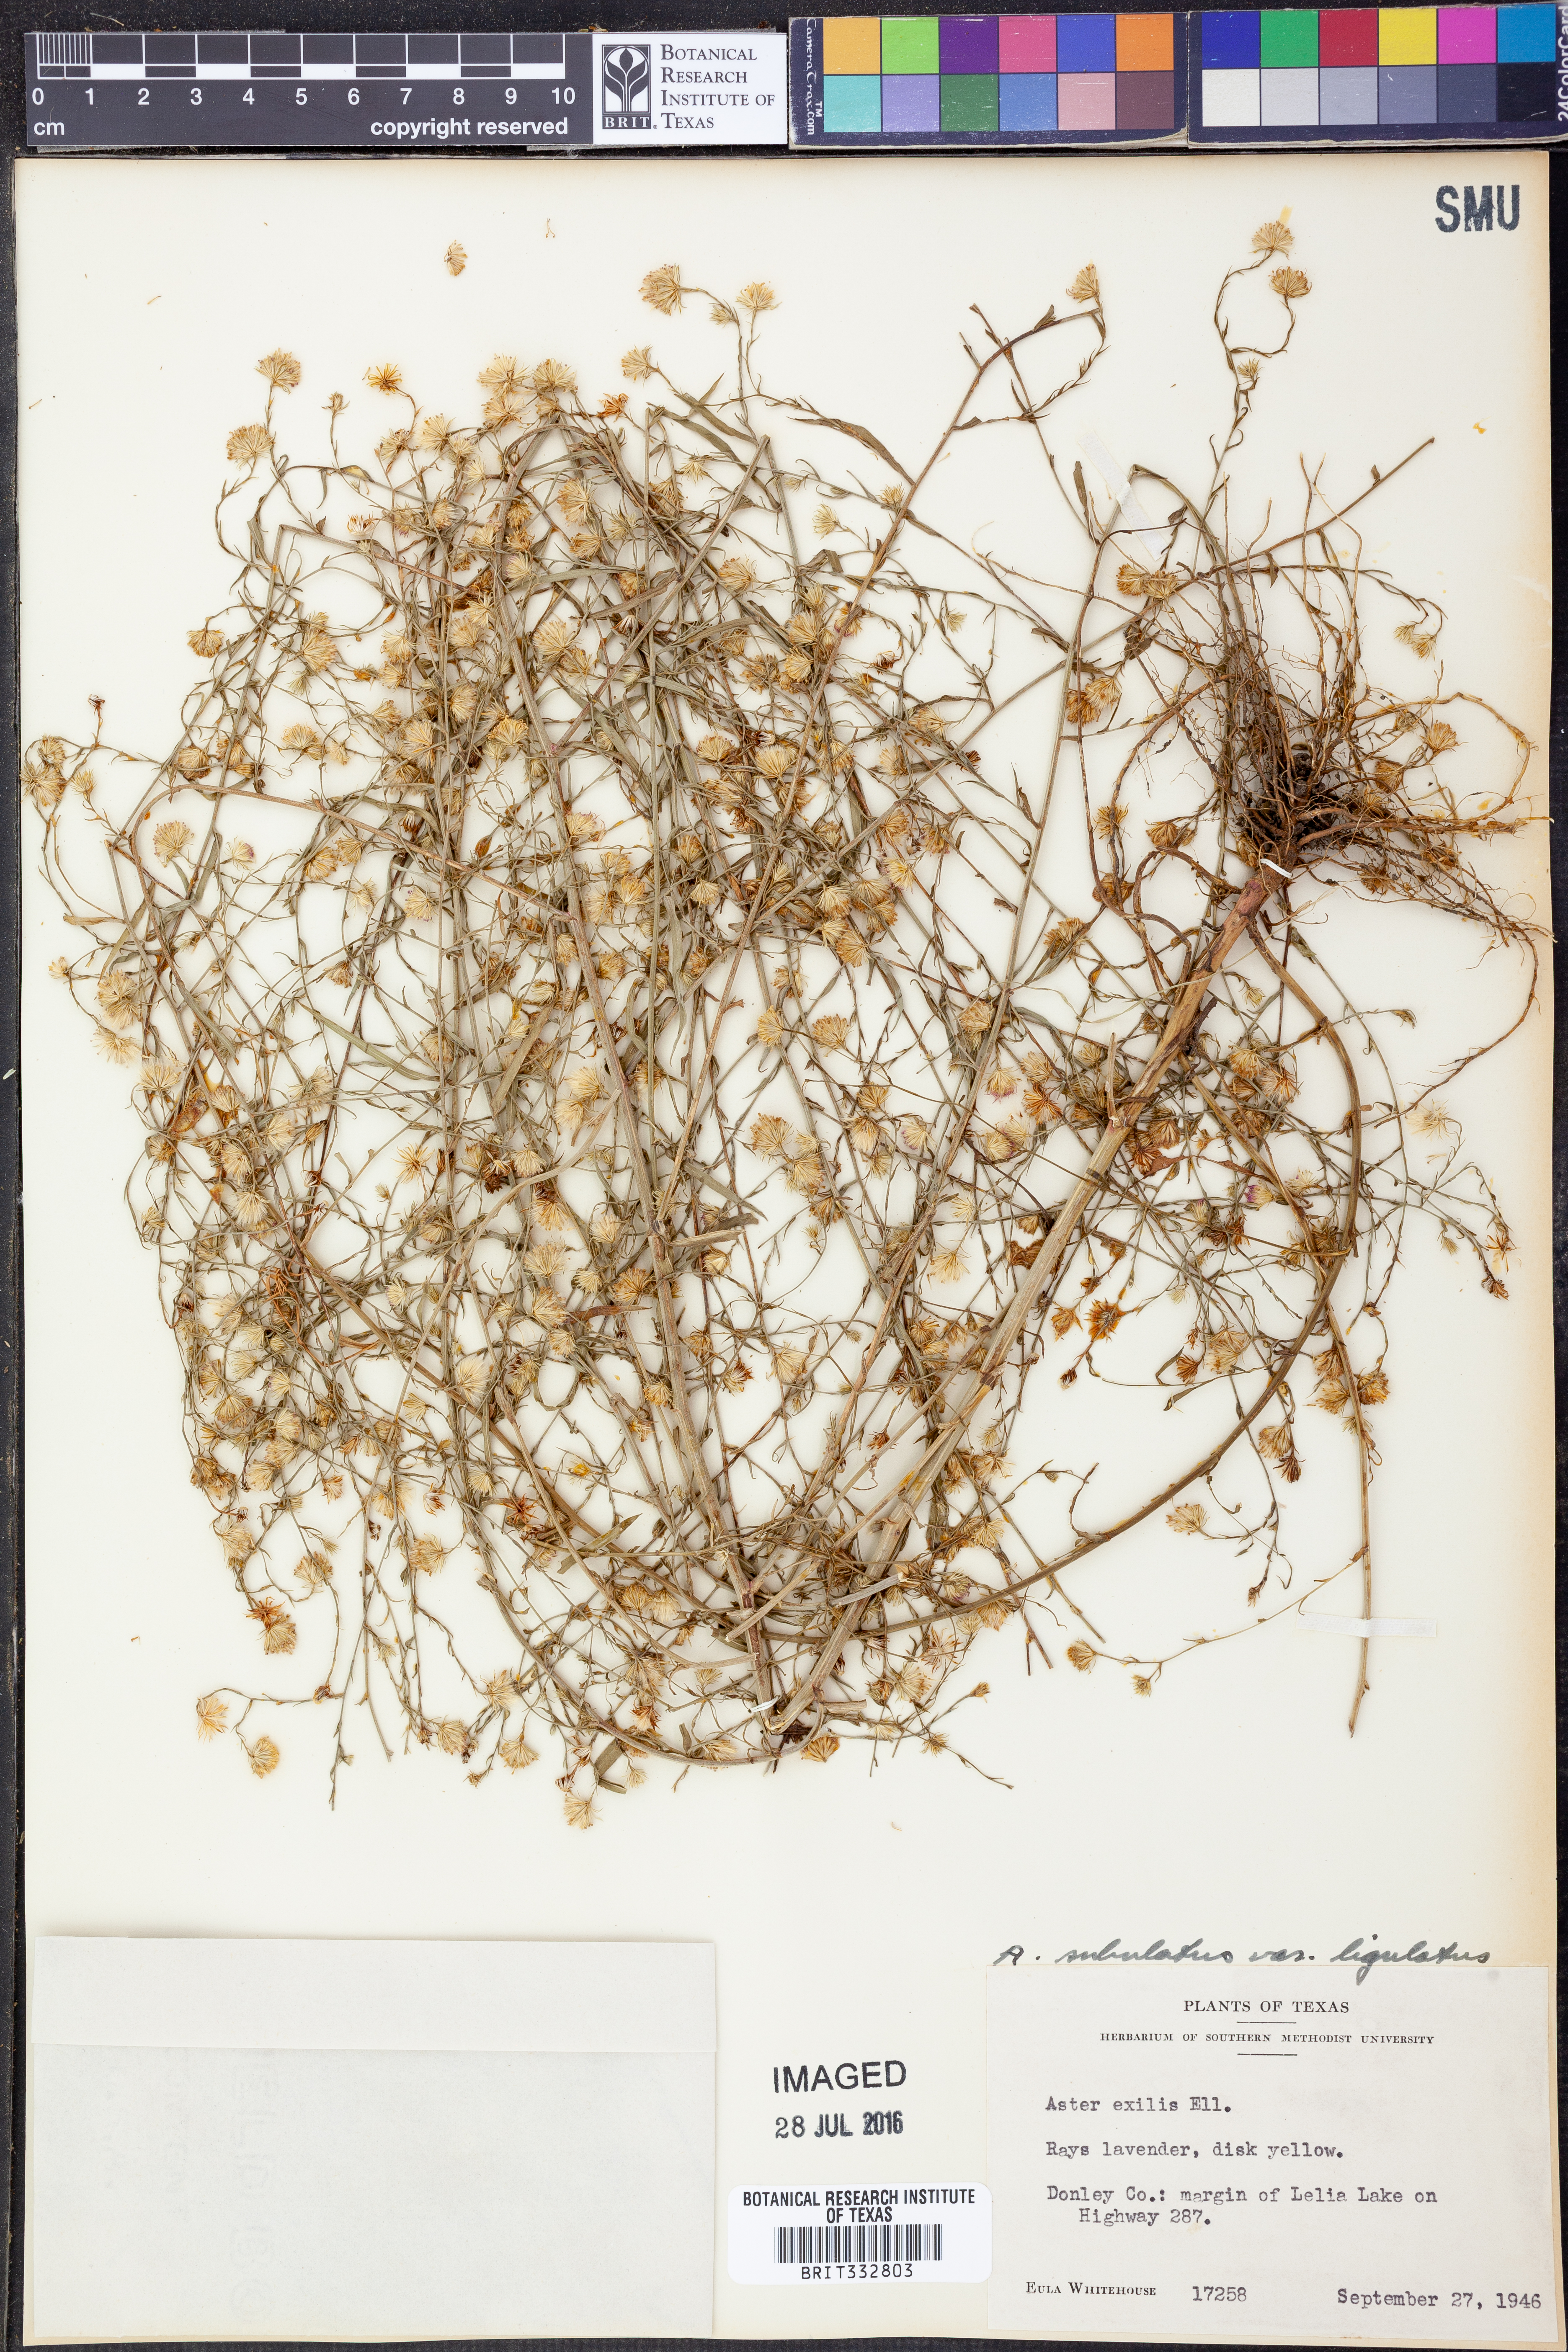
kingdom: Plantae
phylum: Tracheophyta
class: Magnoliopsida
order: Asterales
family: Asteraceae
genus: Symphyotrichum
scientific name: Symphyotrichum divaricatum
